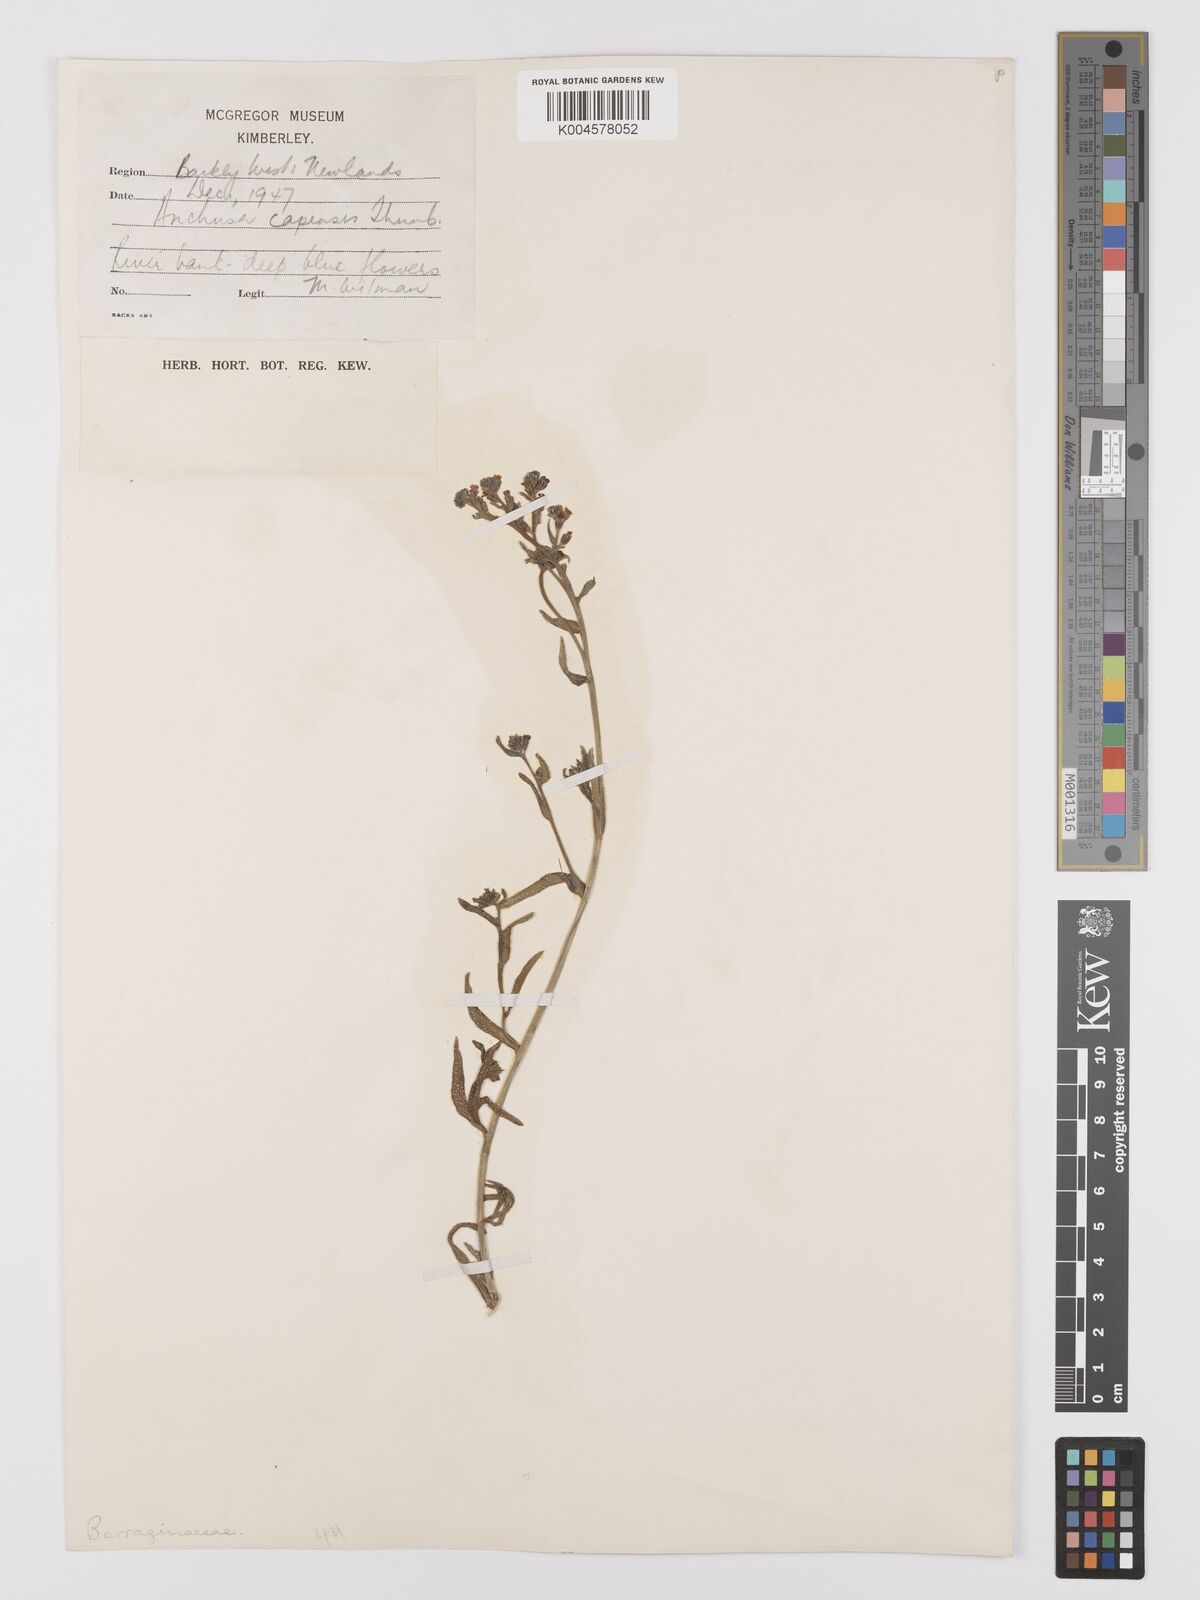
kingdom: Plantae
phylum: Tracheophyta
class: Magnoliopsida
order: Boraginales
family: Boraginaceae
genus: Anchusa
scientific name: Anchusa capensis
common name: Cape bugloss
